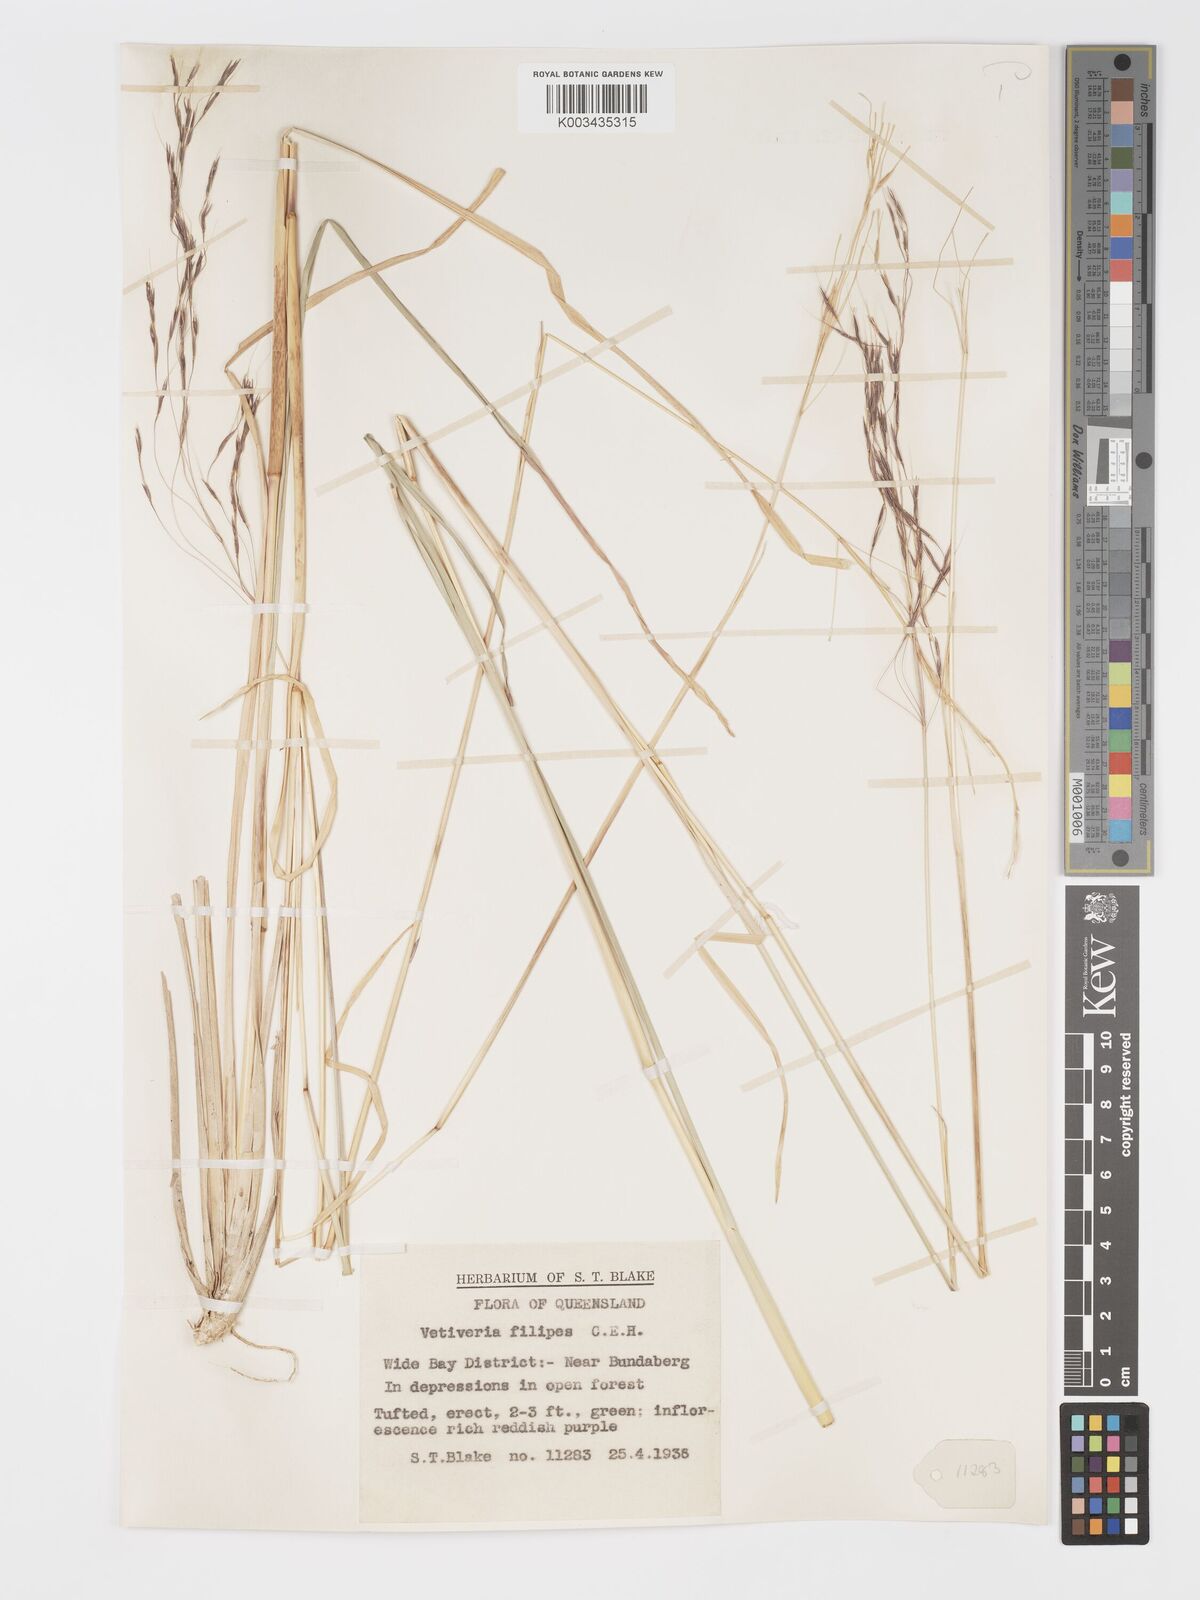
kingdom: Plantae
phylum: Tracheophyta
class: Liliopsida
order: Poales
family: Poaceae
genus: Chrysopogon
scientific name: Chrysopogon filipes
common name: Australian vetiver
